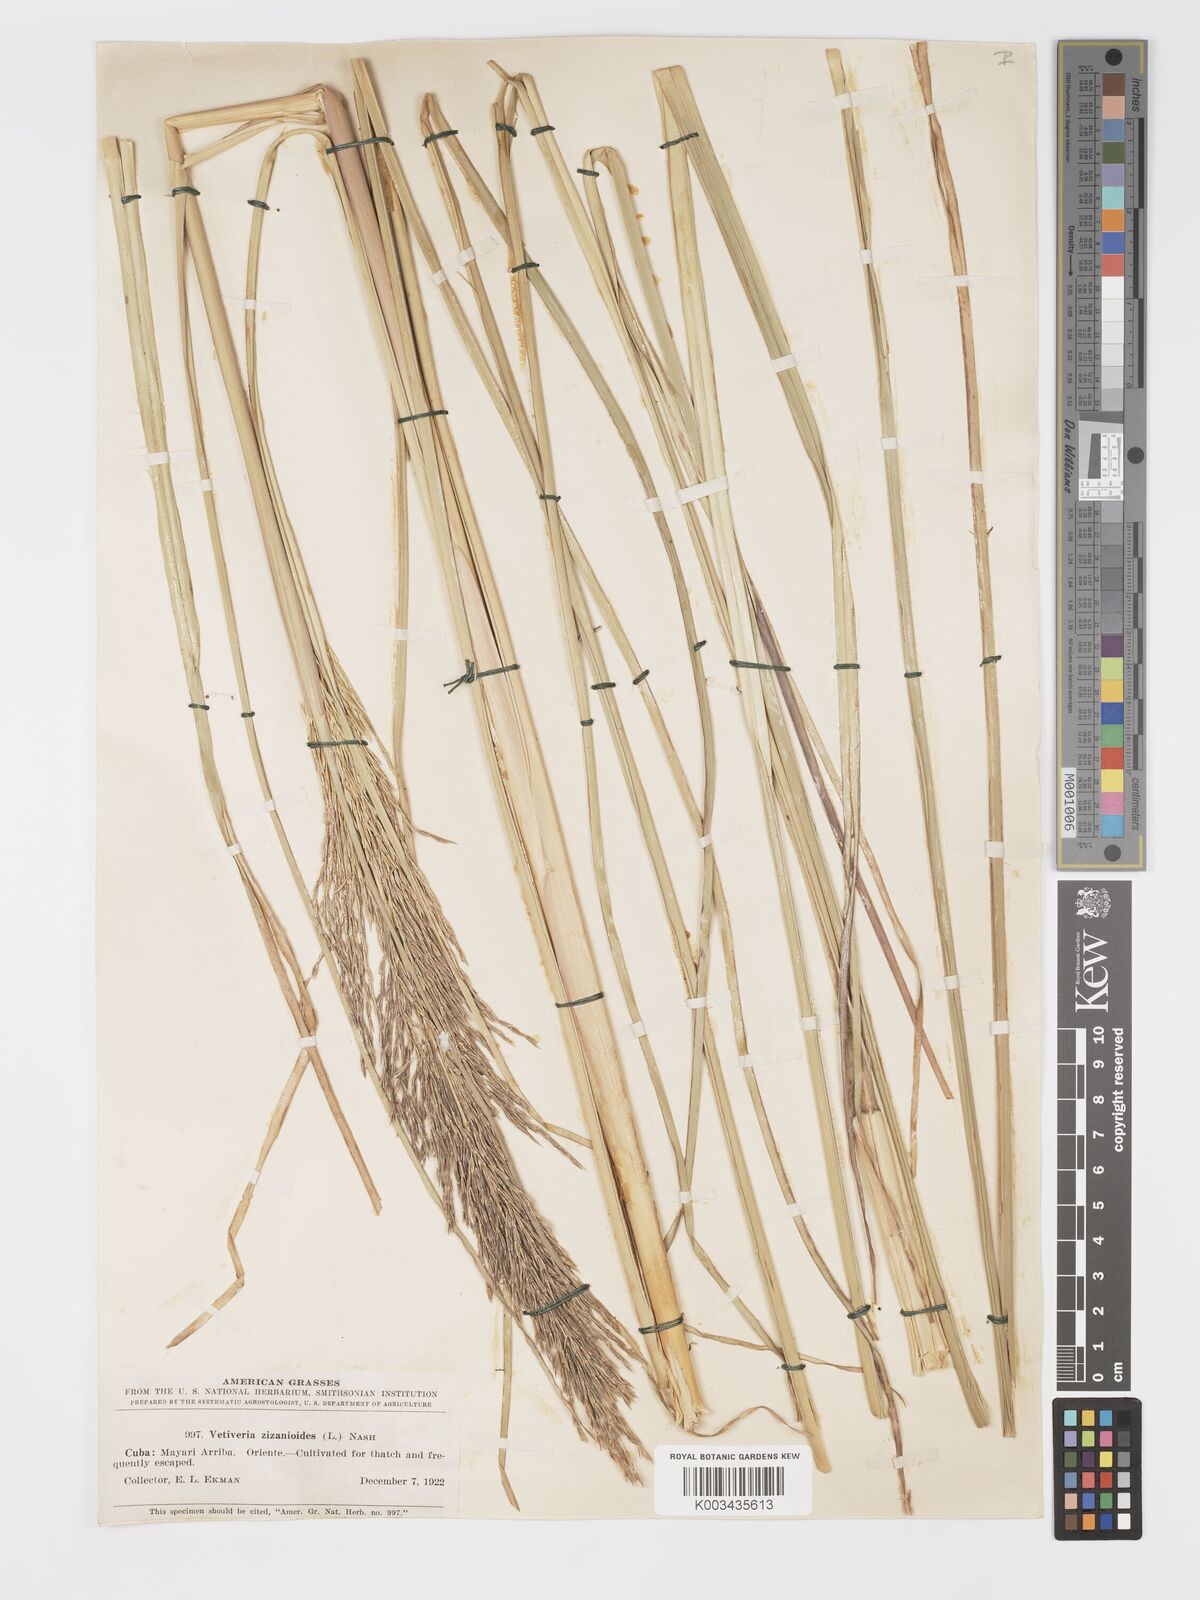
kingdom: Plantae
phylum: Tracheophyta
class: Liliopsida
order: Poales
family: Poaceae
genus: Chrysopogon
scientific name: Chrysopogon zizanioides
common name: False beardgrass
